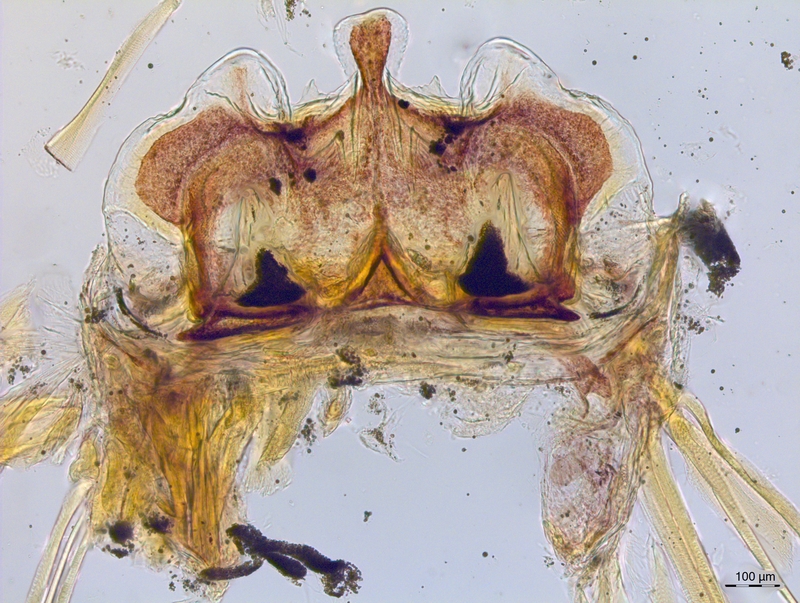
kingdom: Animalia
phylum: Arthropoda
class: Diplopoda
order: Chordeumatida
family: Craspedosomatidae
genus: Craspedosoma
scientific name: Craspedosoma ruborum
